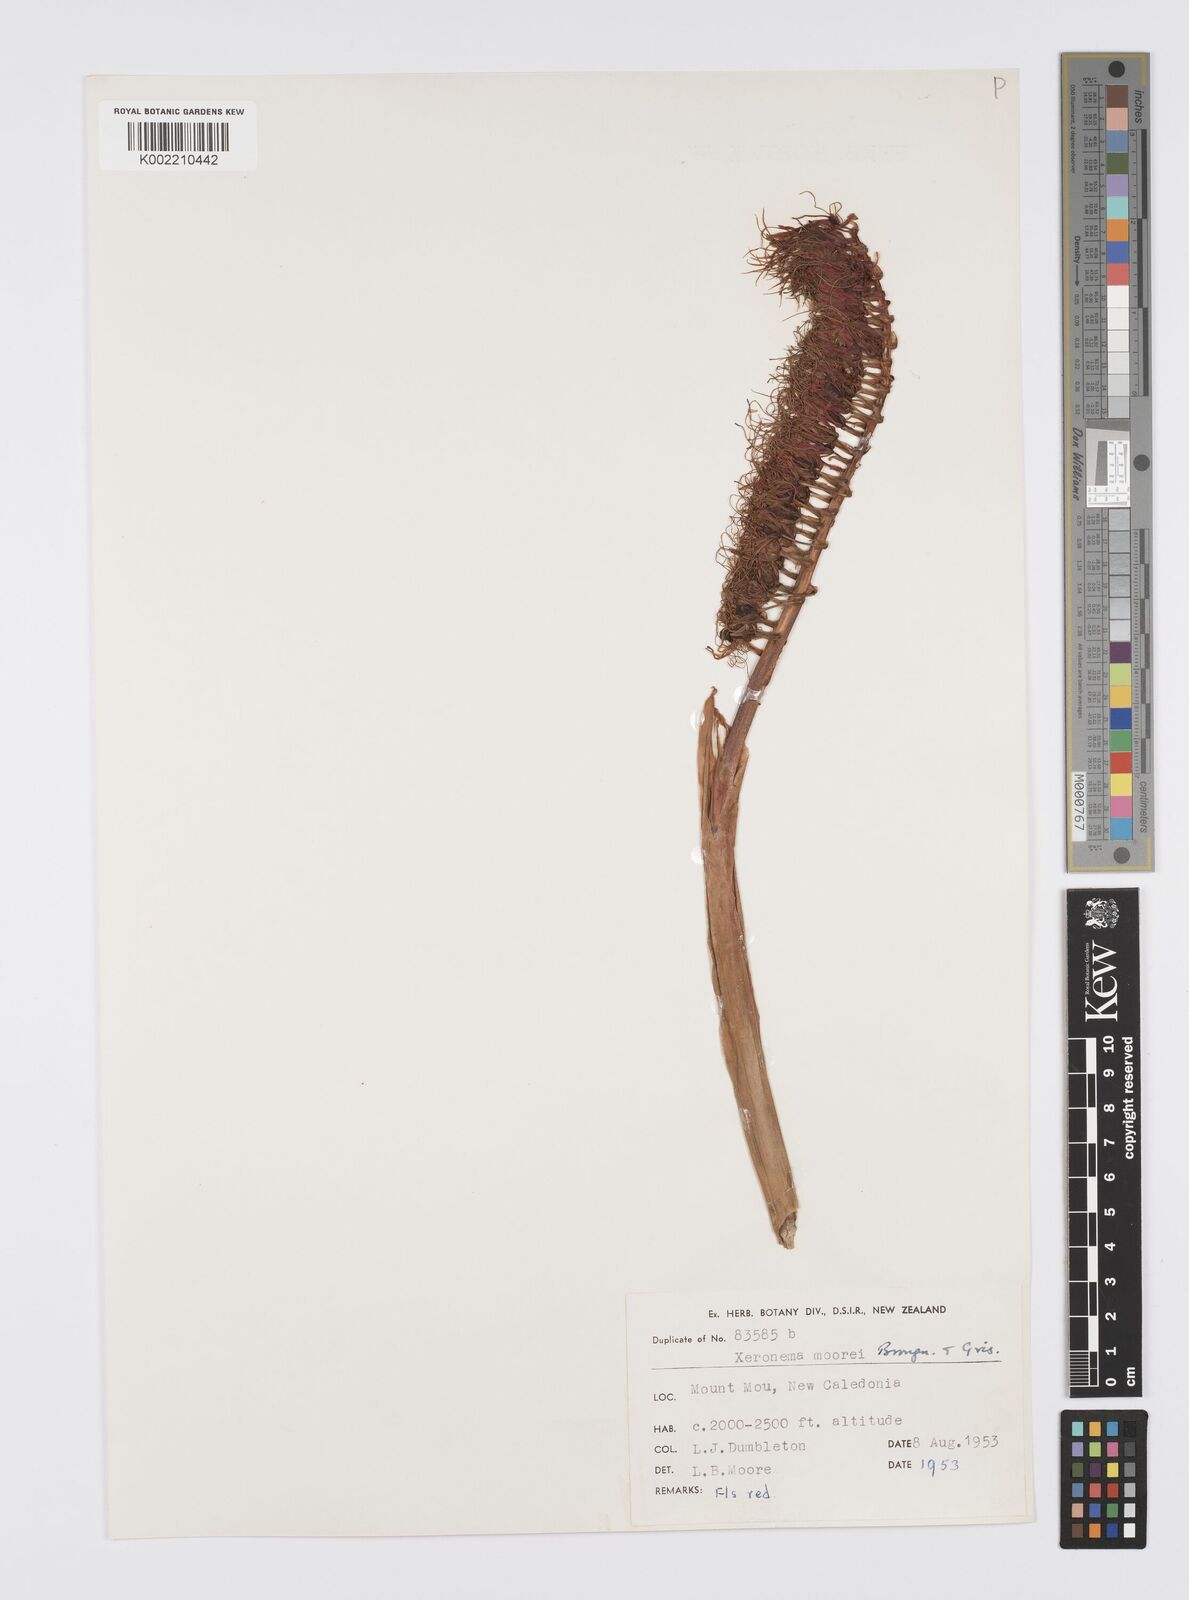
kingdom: Plantae
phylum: Tracheophyta
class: Liliopsida
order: Asparagales
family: Xeronemataceae
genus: Xeronema
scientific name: Xeronema moorei
